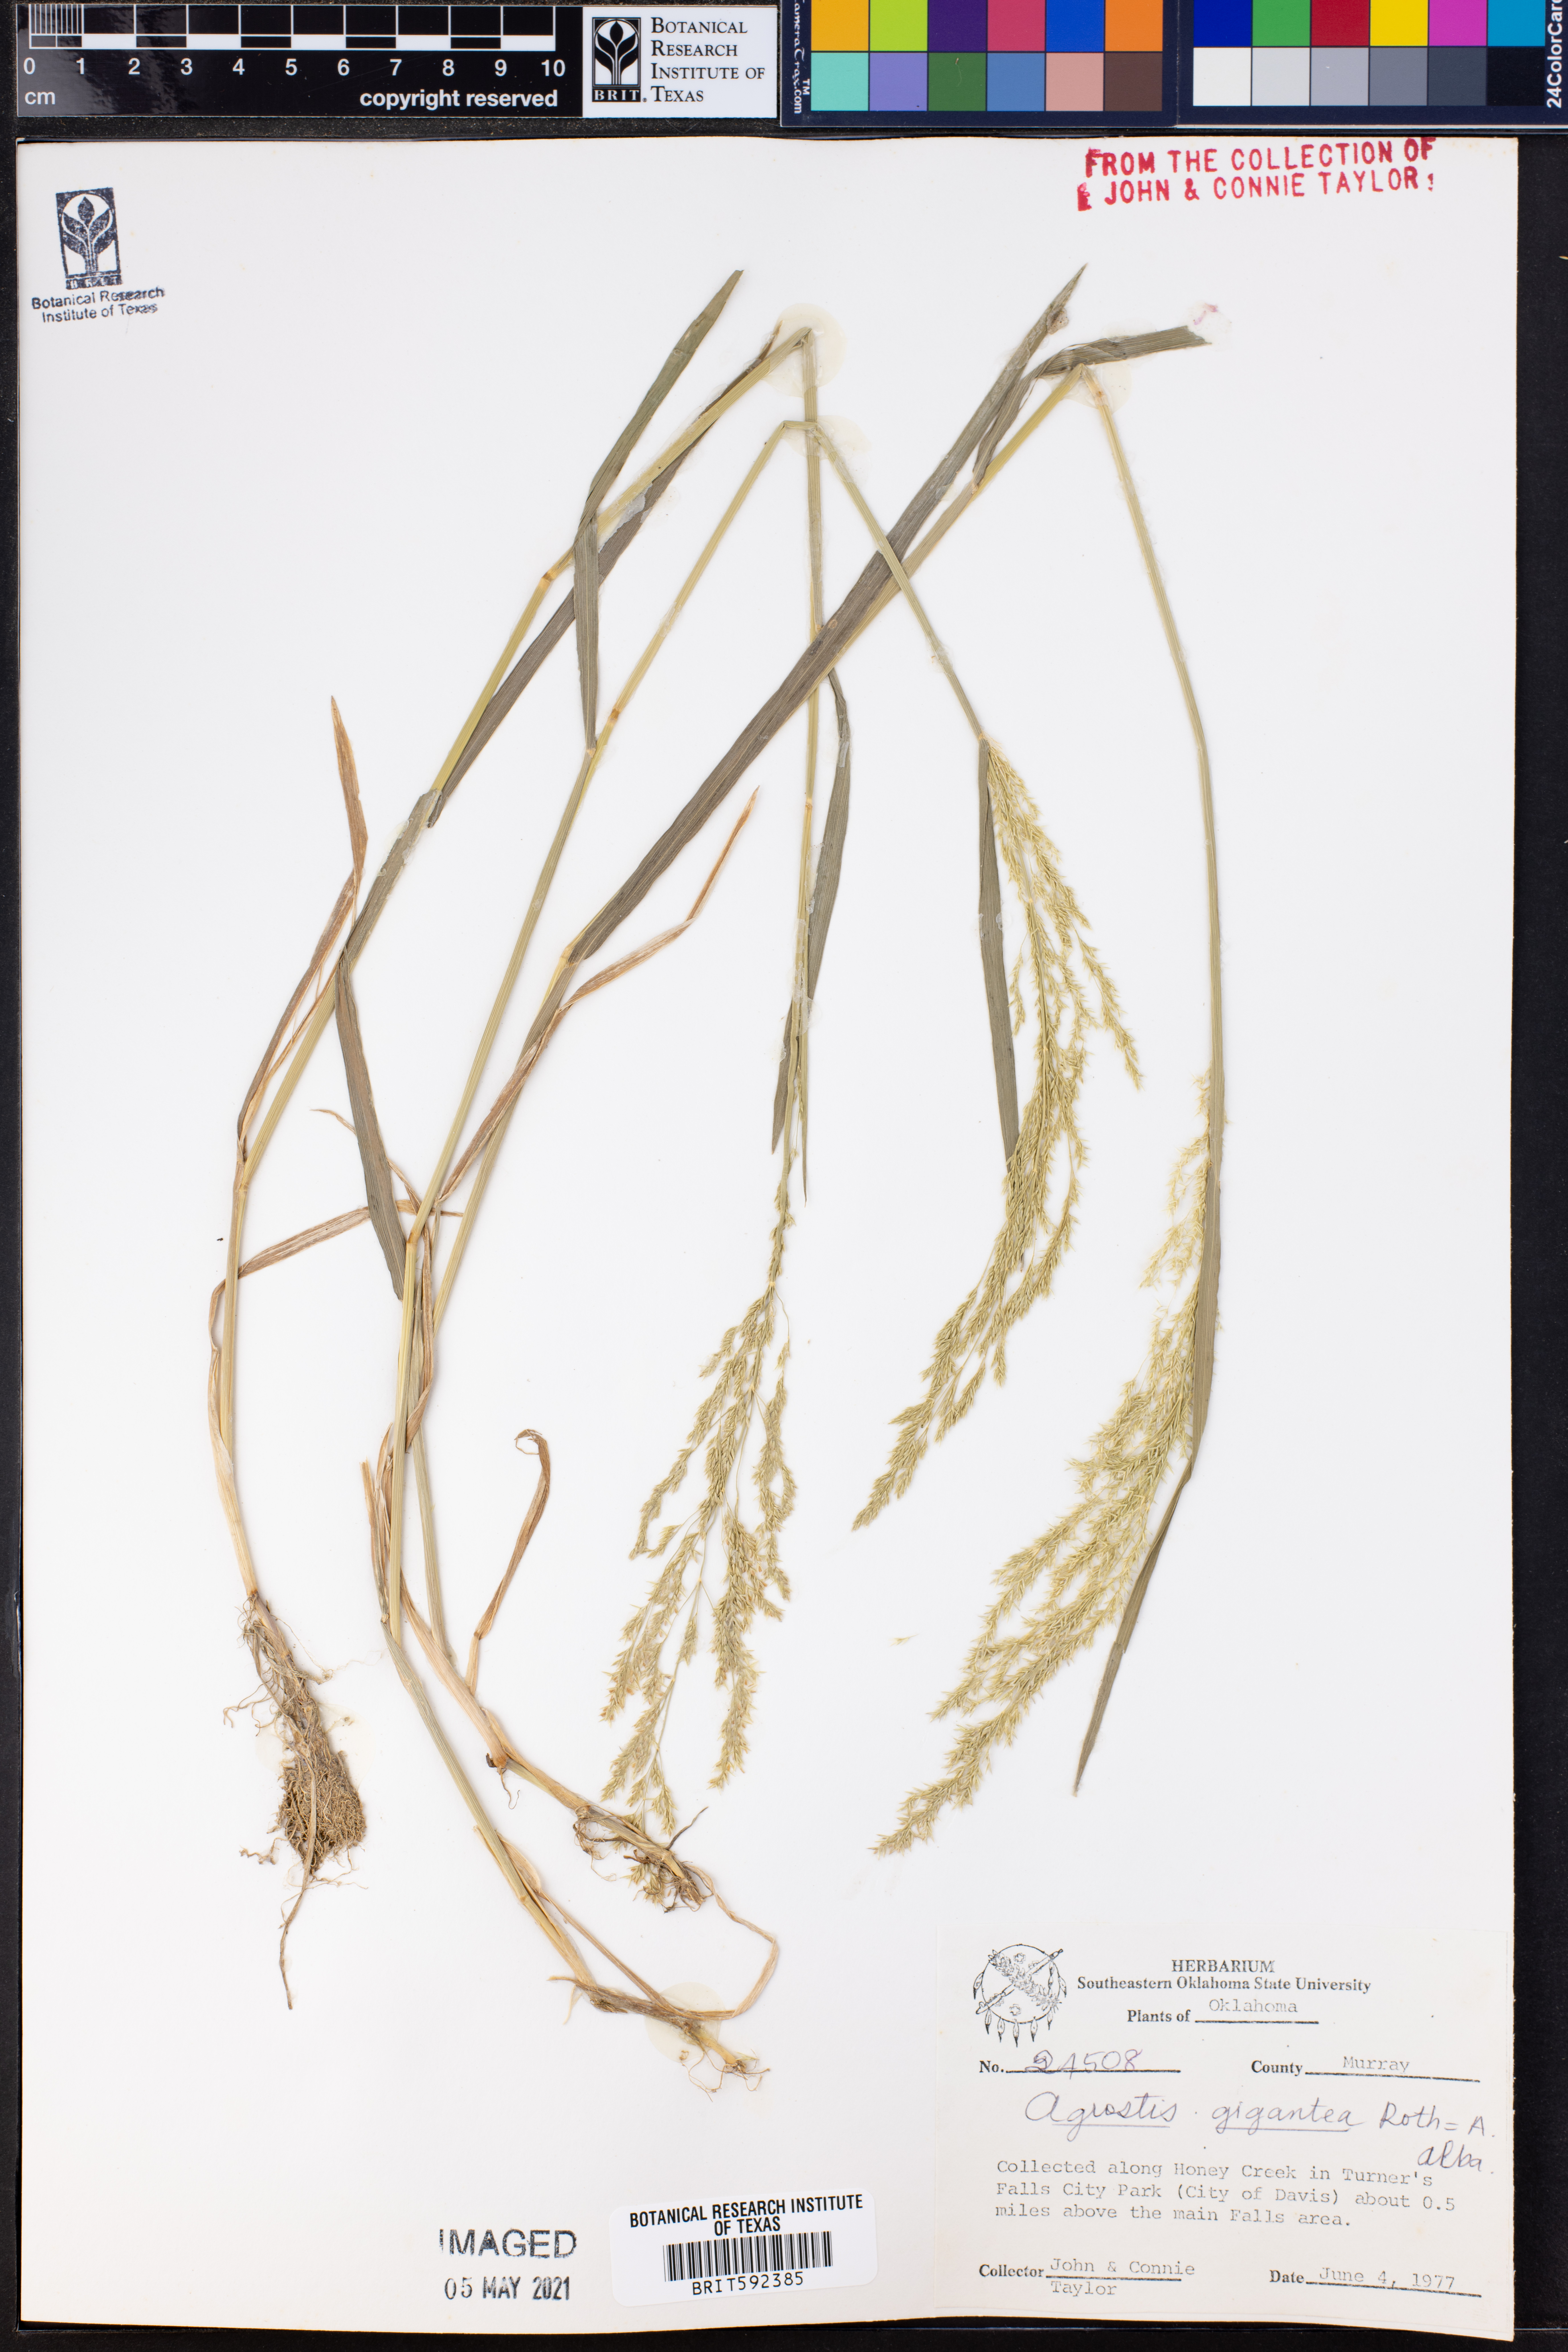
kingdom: Plantae
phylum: Tracheophyta
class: Liliopsida
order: Poales
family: Poaceae
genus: Agrostis
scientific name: Agrostis gigantea
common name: Black bent
